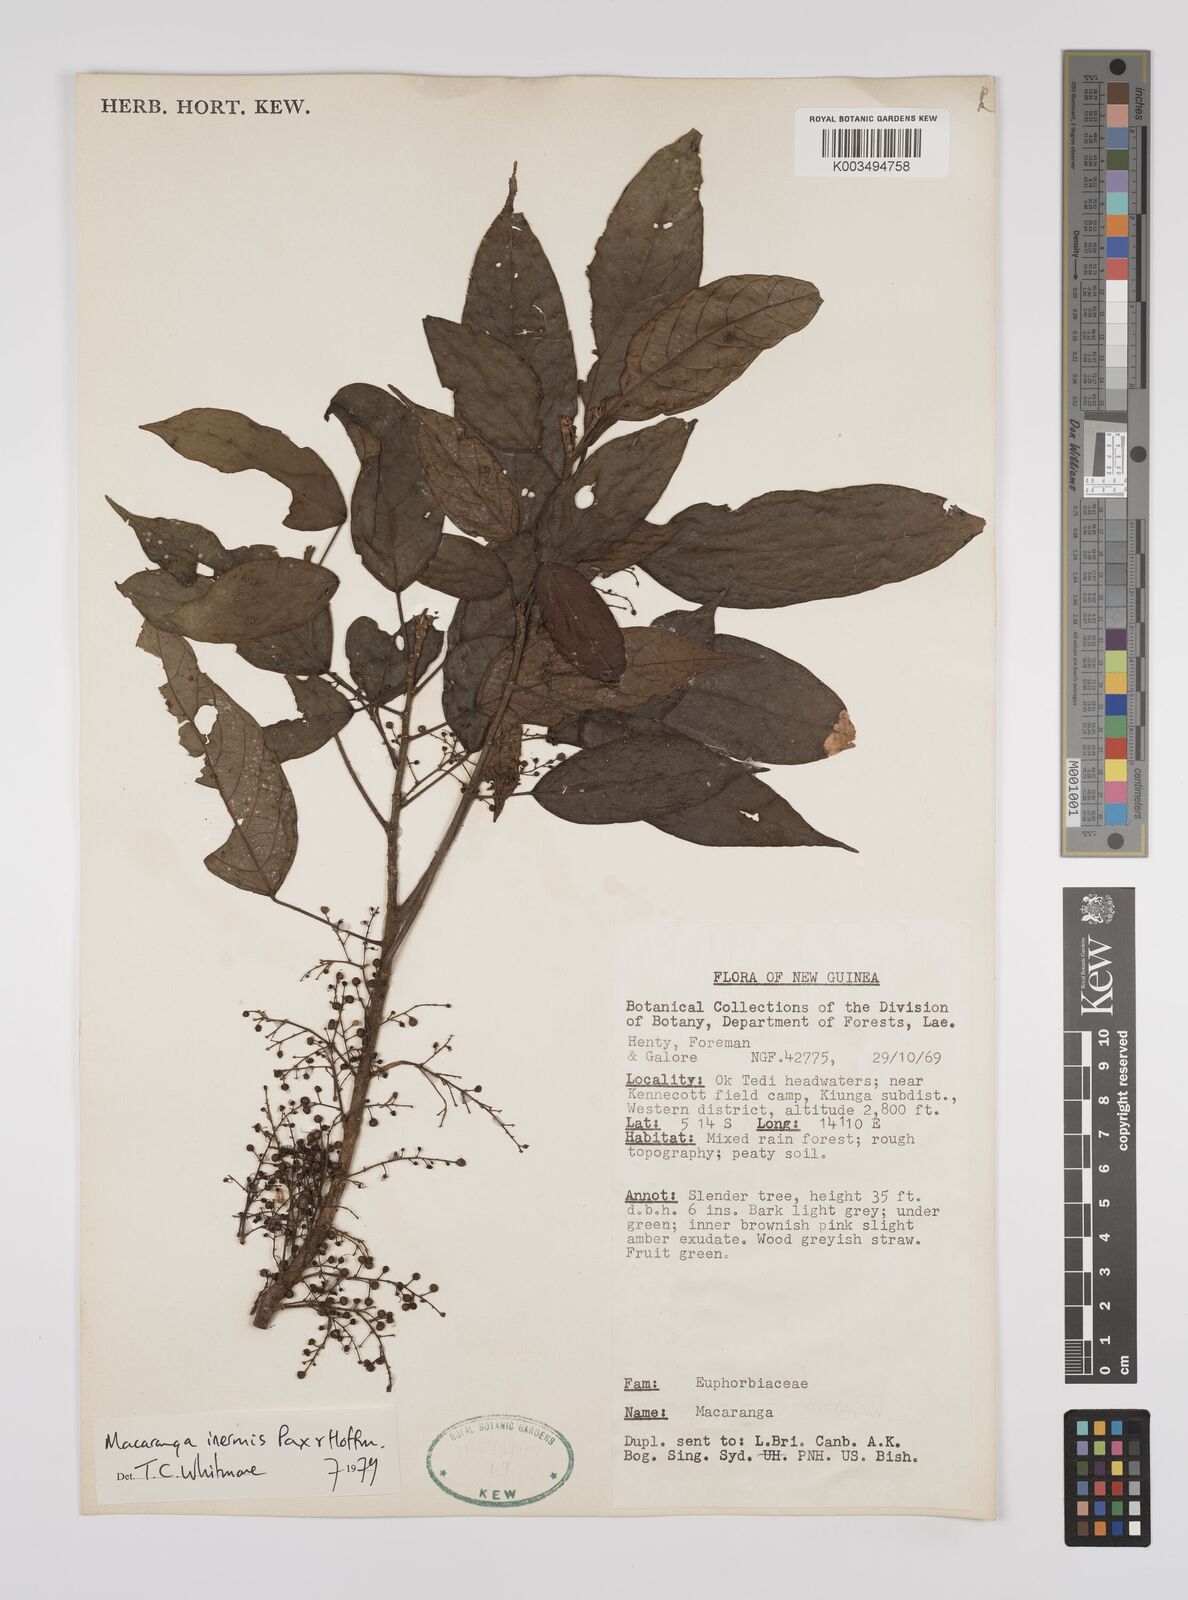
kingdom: Plantae
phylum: Tracheophyta
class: Magnoliopsida
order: Malpighiales
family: Euphorbiaceae
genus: Macaranga
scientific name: Macaranga inermis
